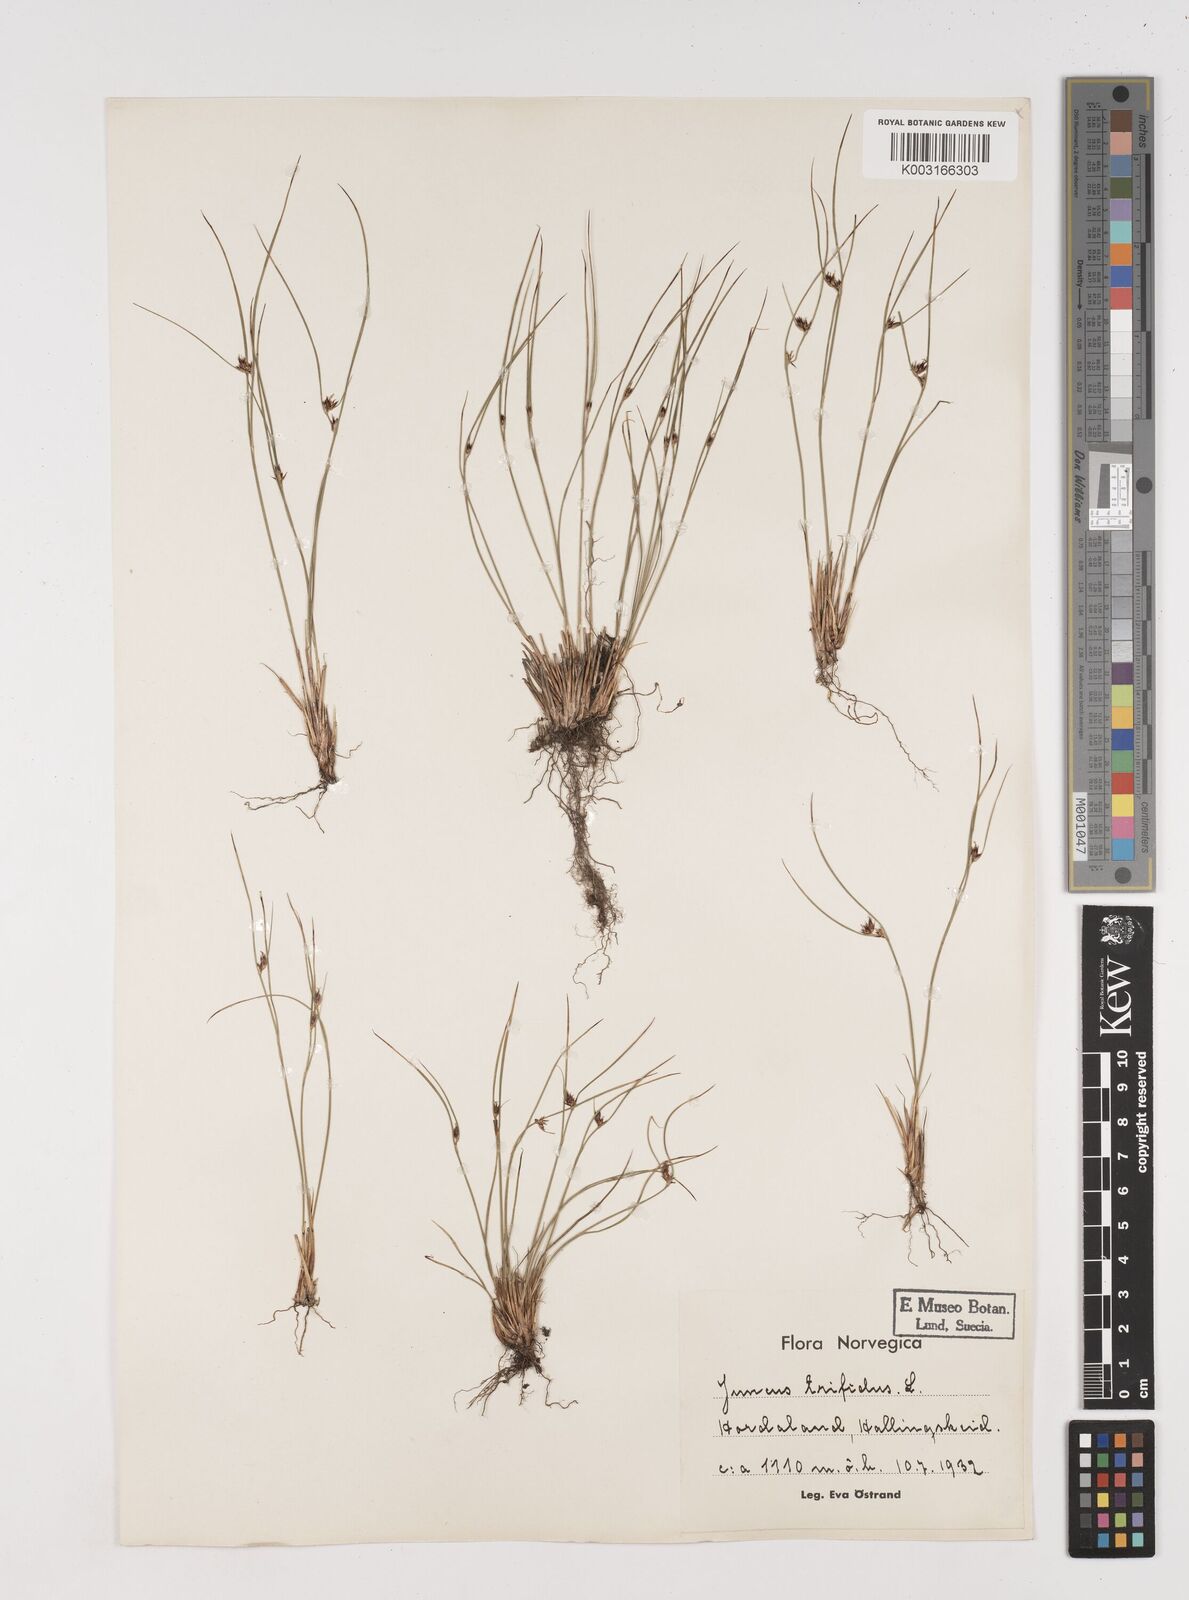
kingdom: Plantae
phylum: Tracheophyta
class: Liliopsida
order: Poales
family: Juncaceae
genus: Oreojuncus
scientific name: Oreojuncus trifidus
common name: Highland rush
